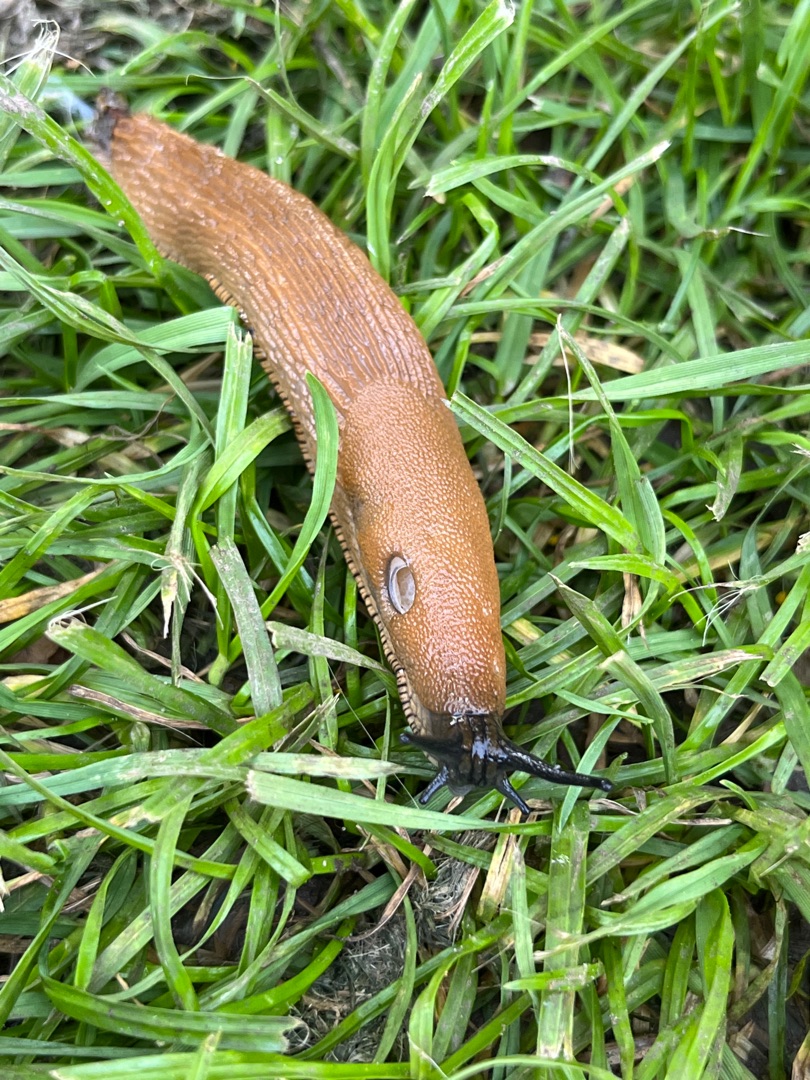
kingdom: Animalia
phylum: Mollusca
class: Gastropoda
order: Stylommatophora
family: Arionidae
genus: Arion
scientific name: Arion vulgaris
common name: Iberisk skovsnegl
